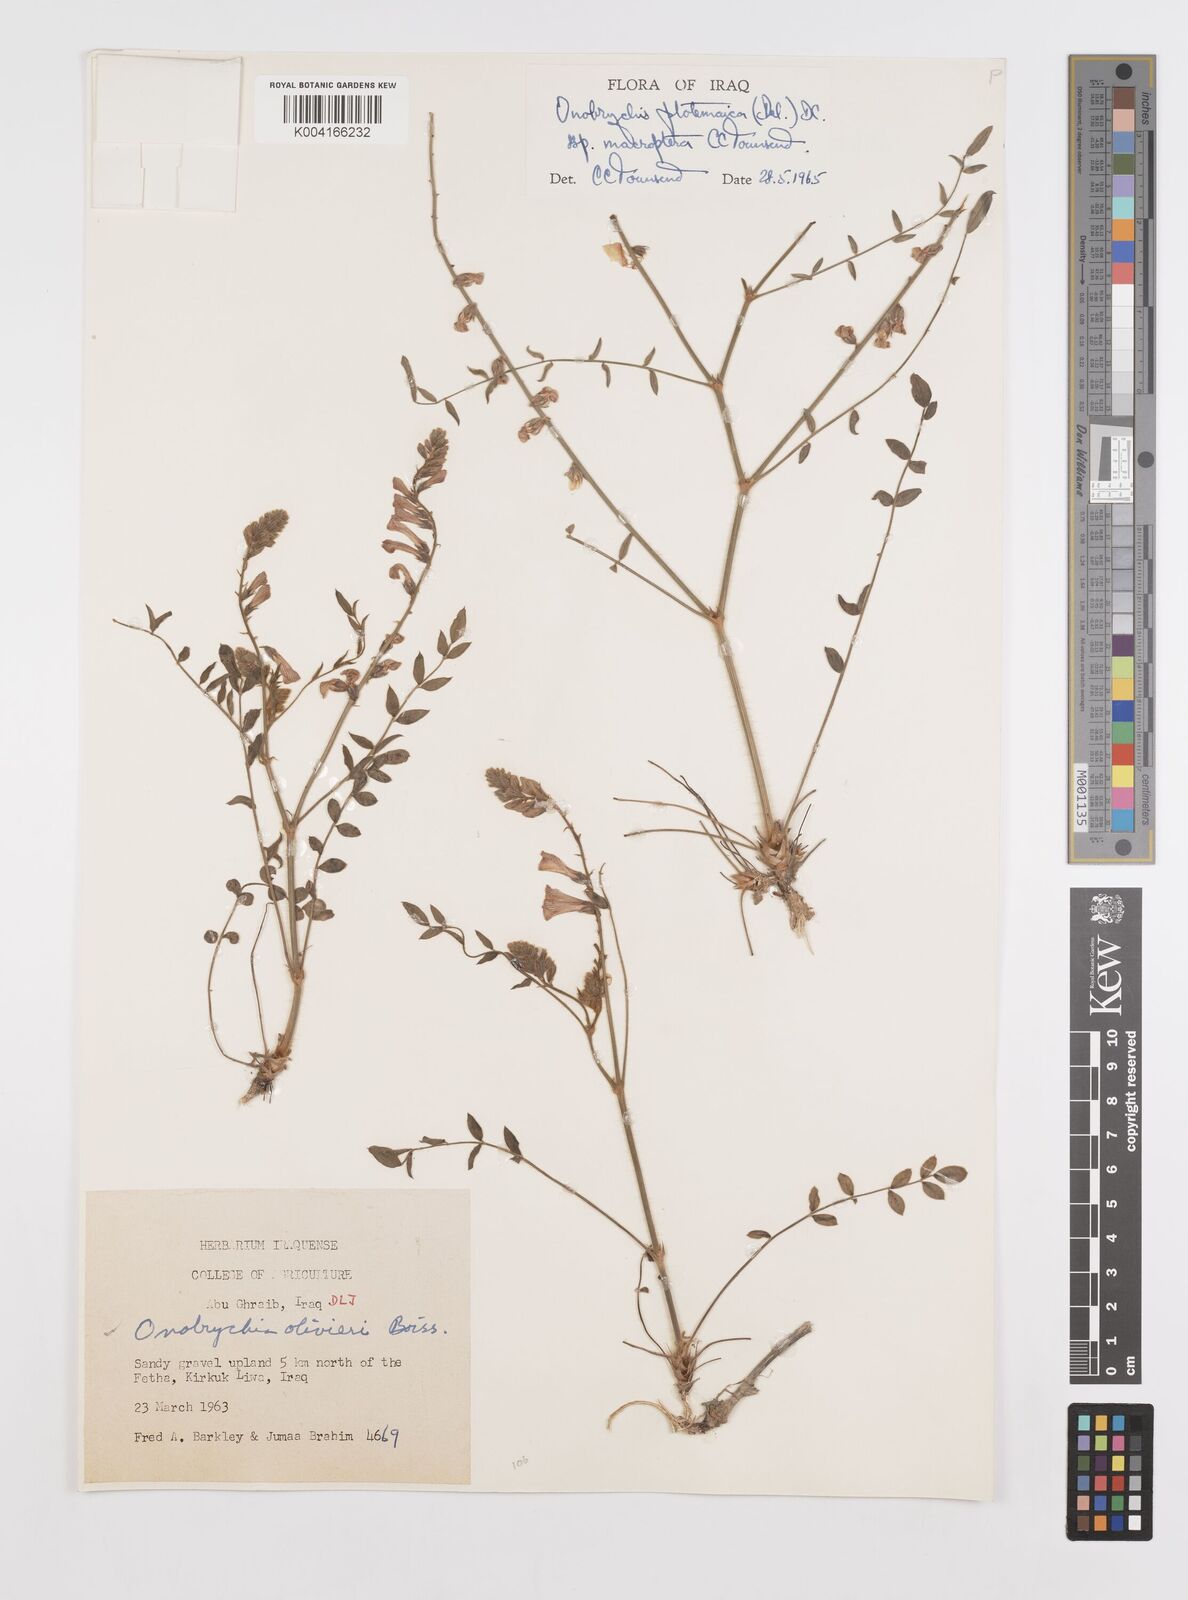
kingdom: Plantae
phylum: Tracheophyta
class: Magnoliopsida
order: Fabales
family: Fabaceae
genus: Onobrychis
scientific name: Onobrychis ptolemaica
